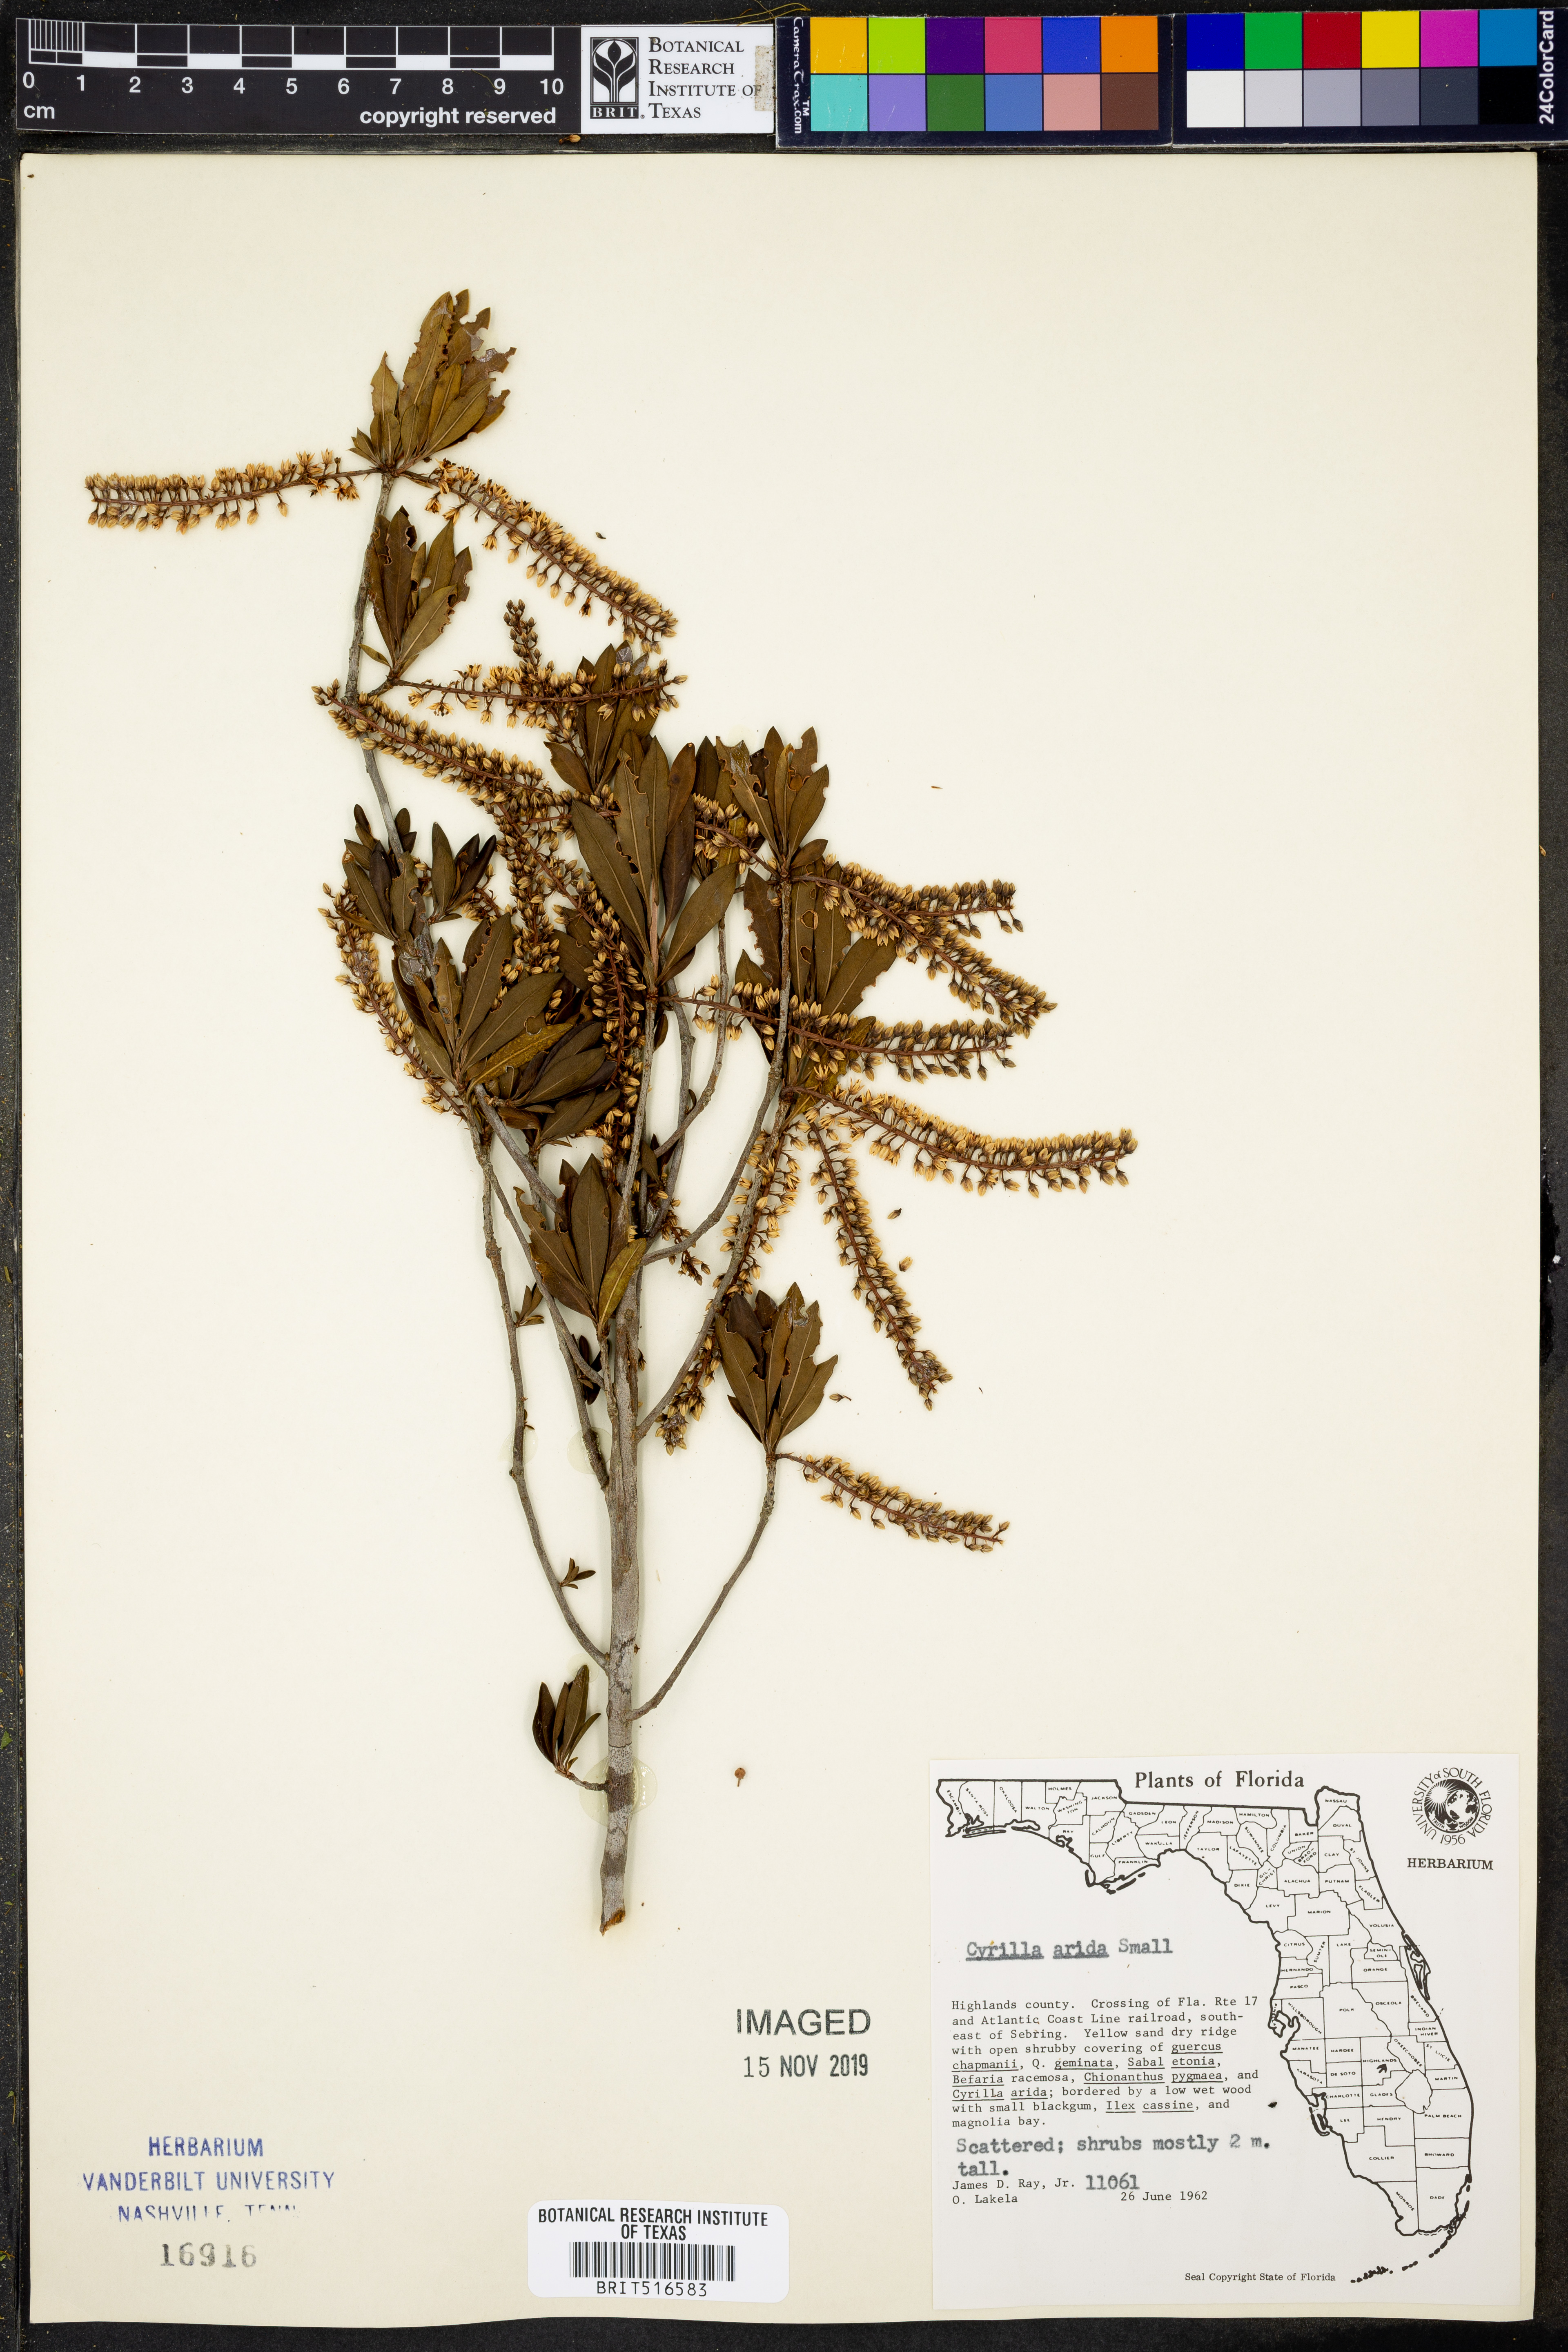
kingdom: Plantae
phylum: Tracheophyta
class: Magnoliopsida
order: Ericales
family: Cyrillaceae
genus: Cyrilla
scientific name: Cyrilla racemiflora
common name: Black titi
